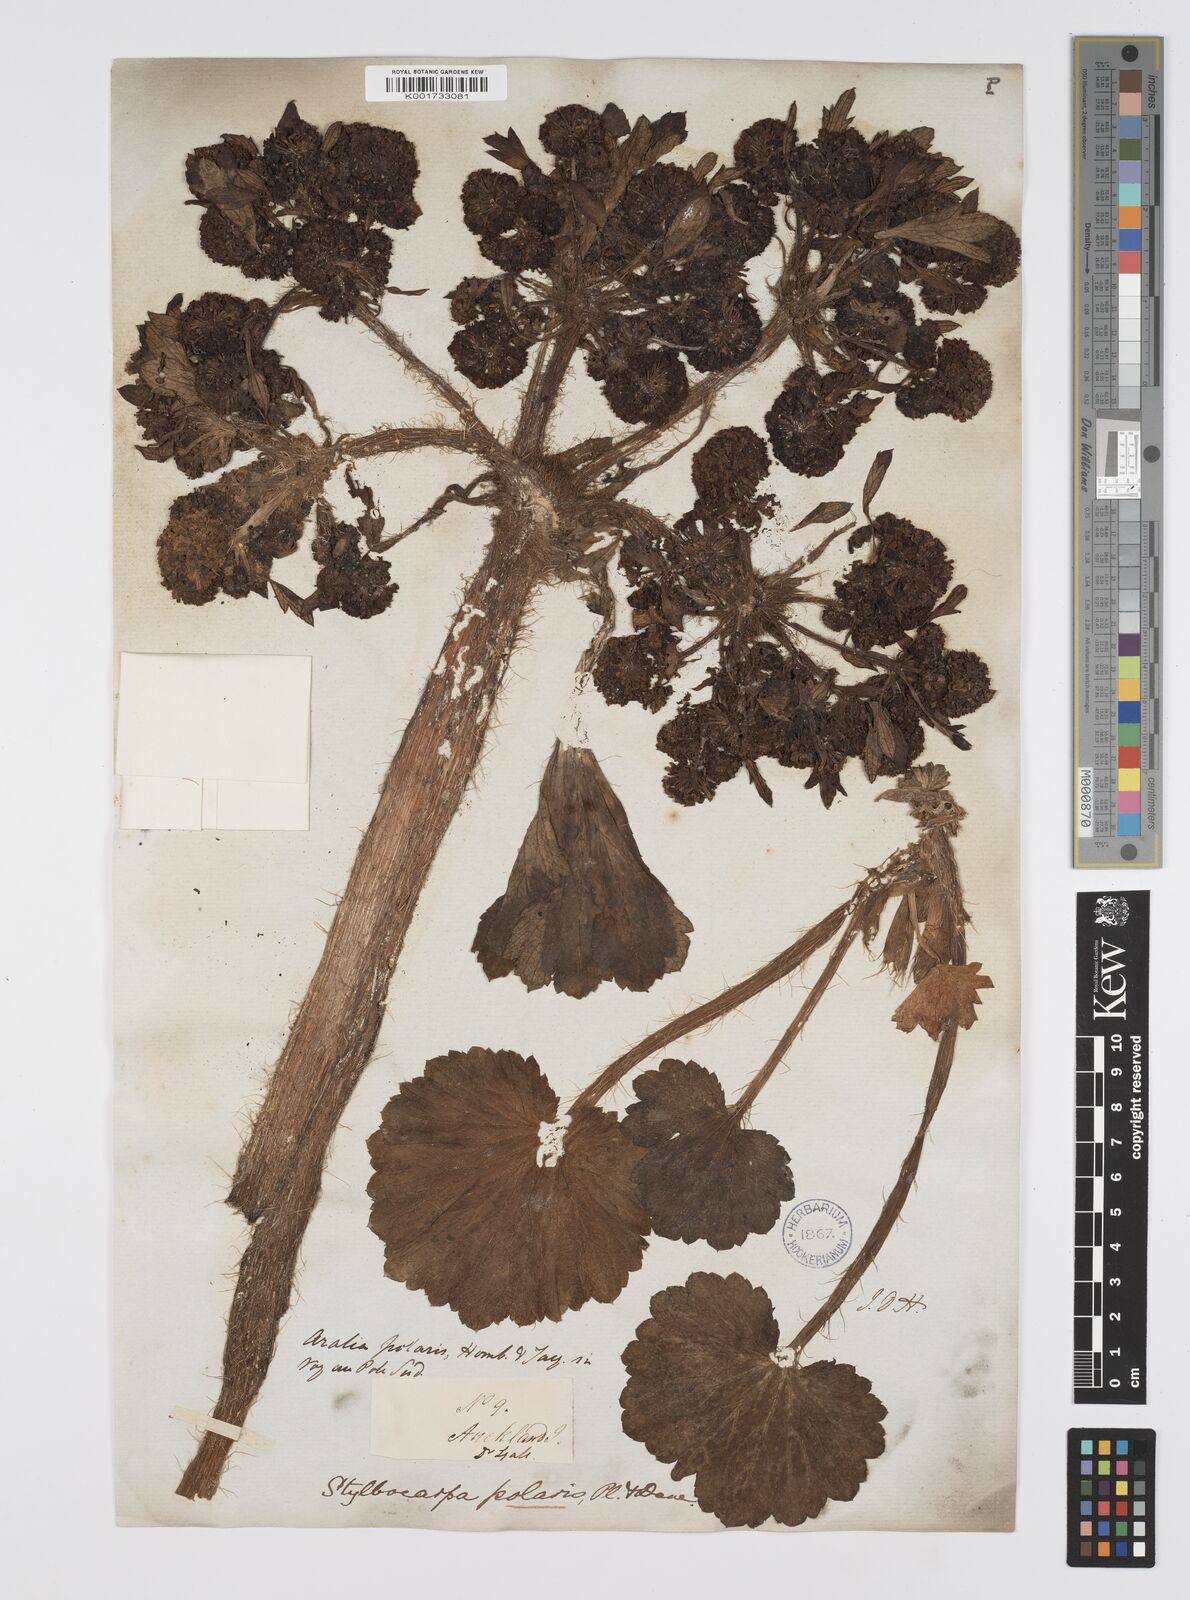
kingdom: Plantae
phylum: Tracheophyta
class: Magnoliopsida
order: Apiales
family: Apiaceae
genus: Azorella
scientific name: Azorella polaris
